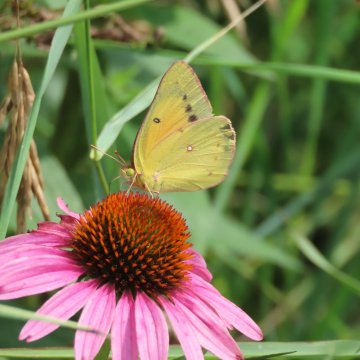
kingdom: Animalia
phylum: Arthropoda
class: Insecta
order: Lepidoptera
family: Pieridae
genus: Colias
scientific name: Colias eurytheme
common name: Orange Sulphur
